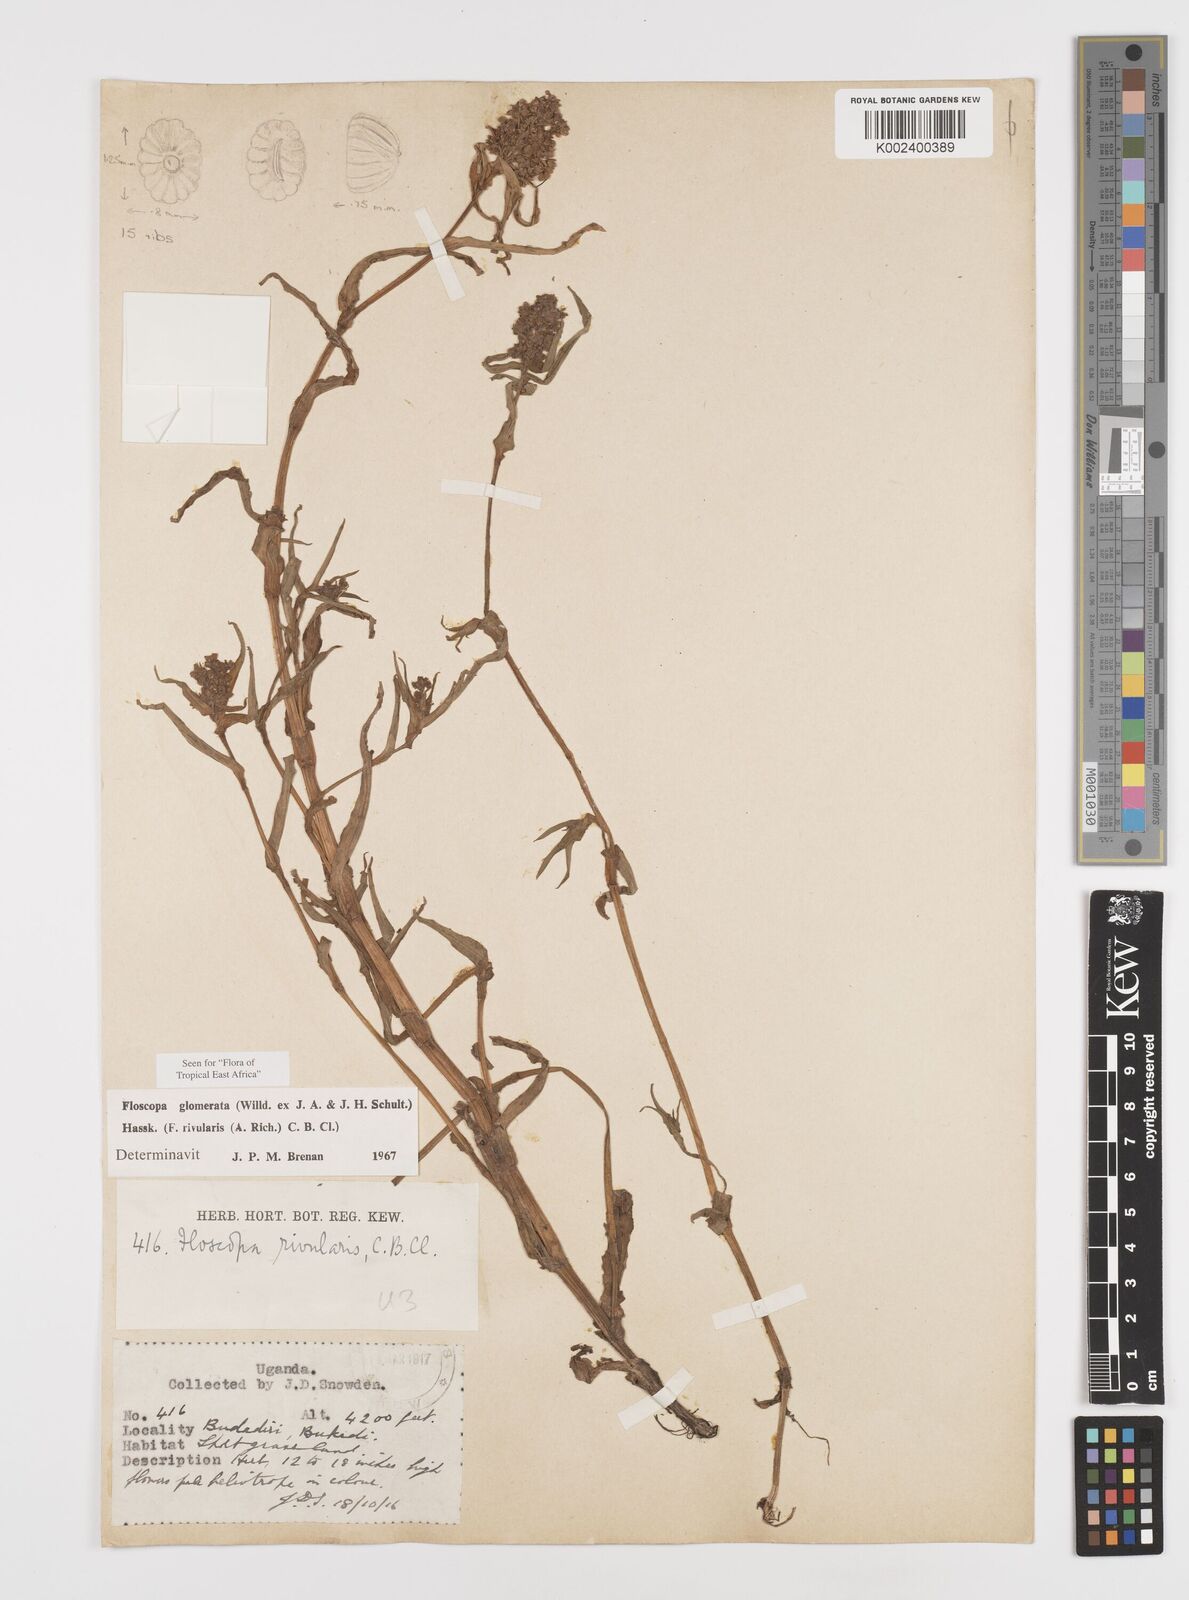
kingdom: Plantae
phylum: Tracheophyta
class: Liliopsida
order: Commelinales
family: Commelinaceae
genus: Floscopa
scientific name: Floscopa glomerata
